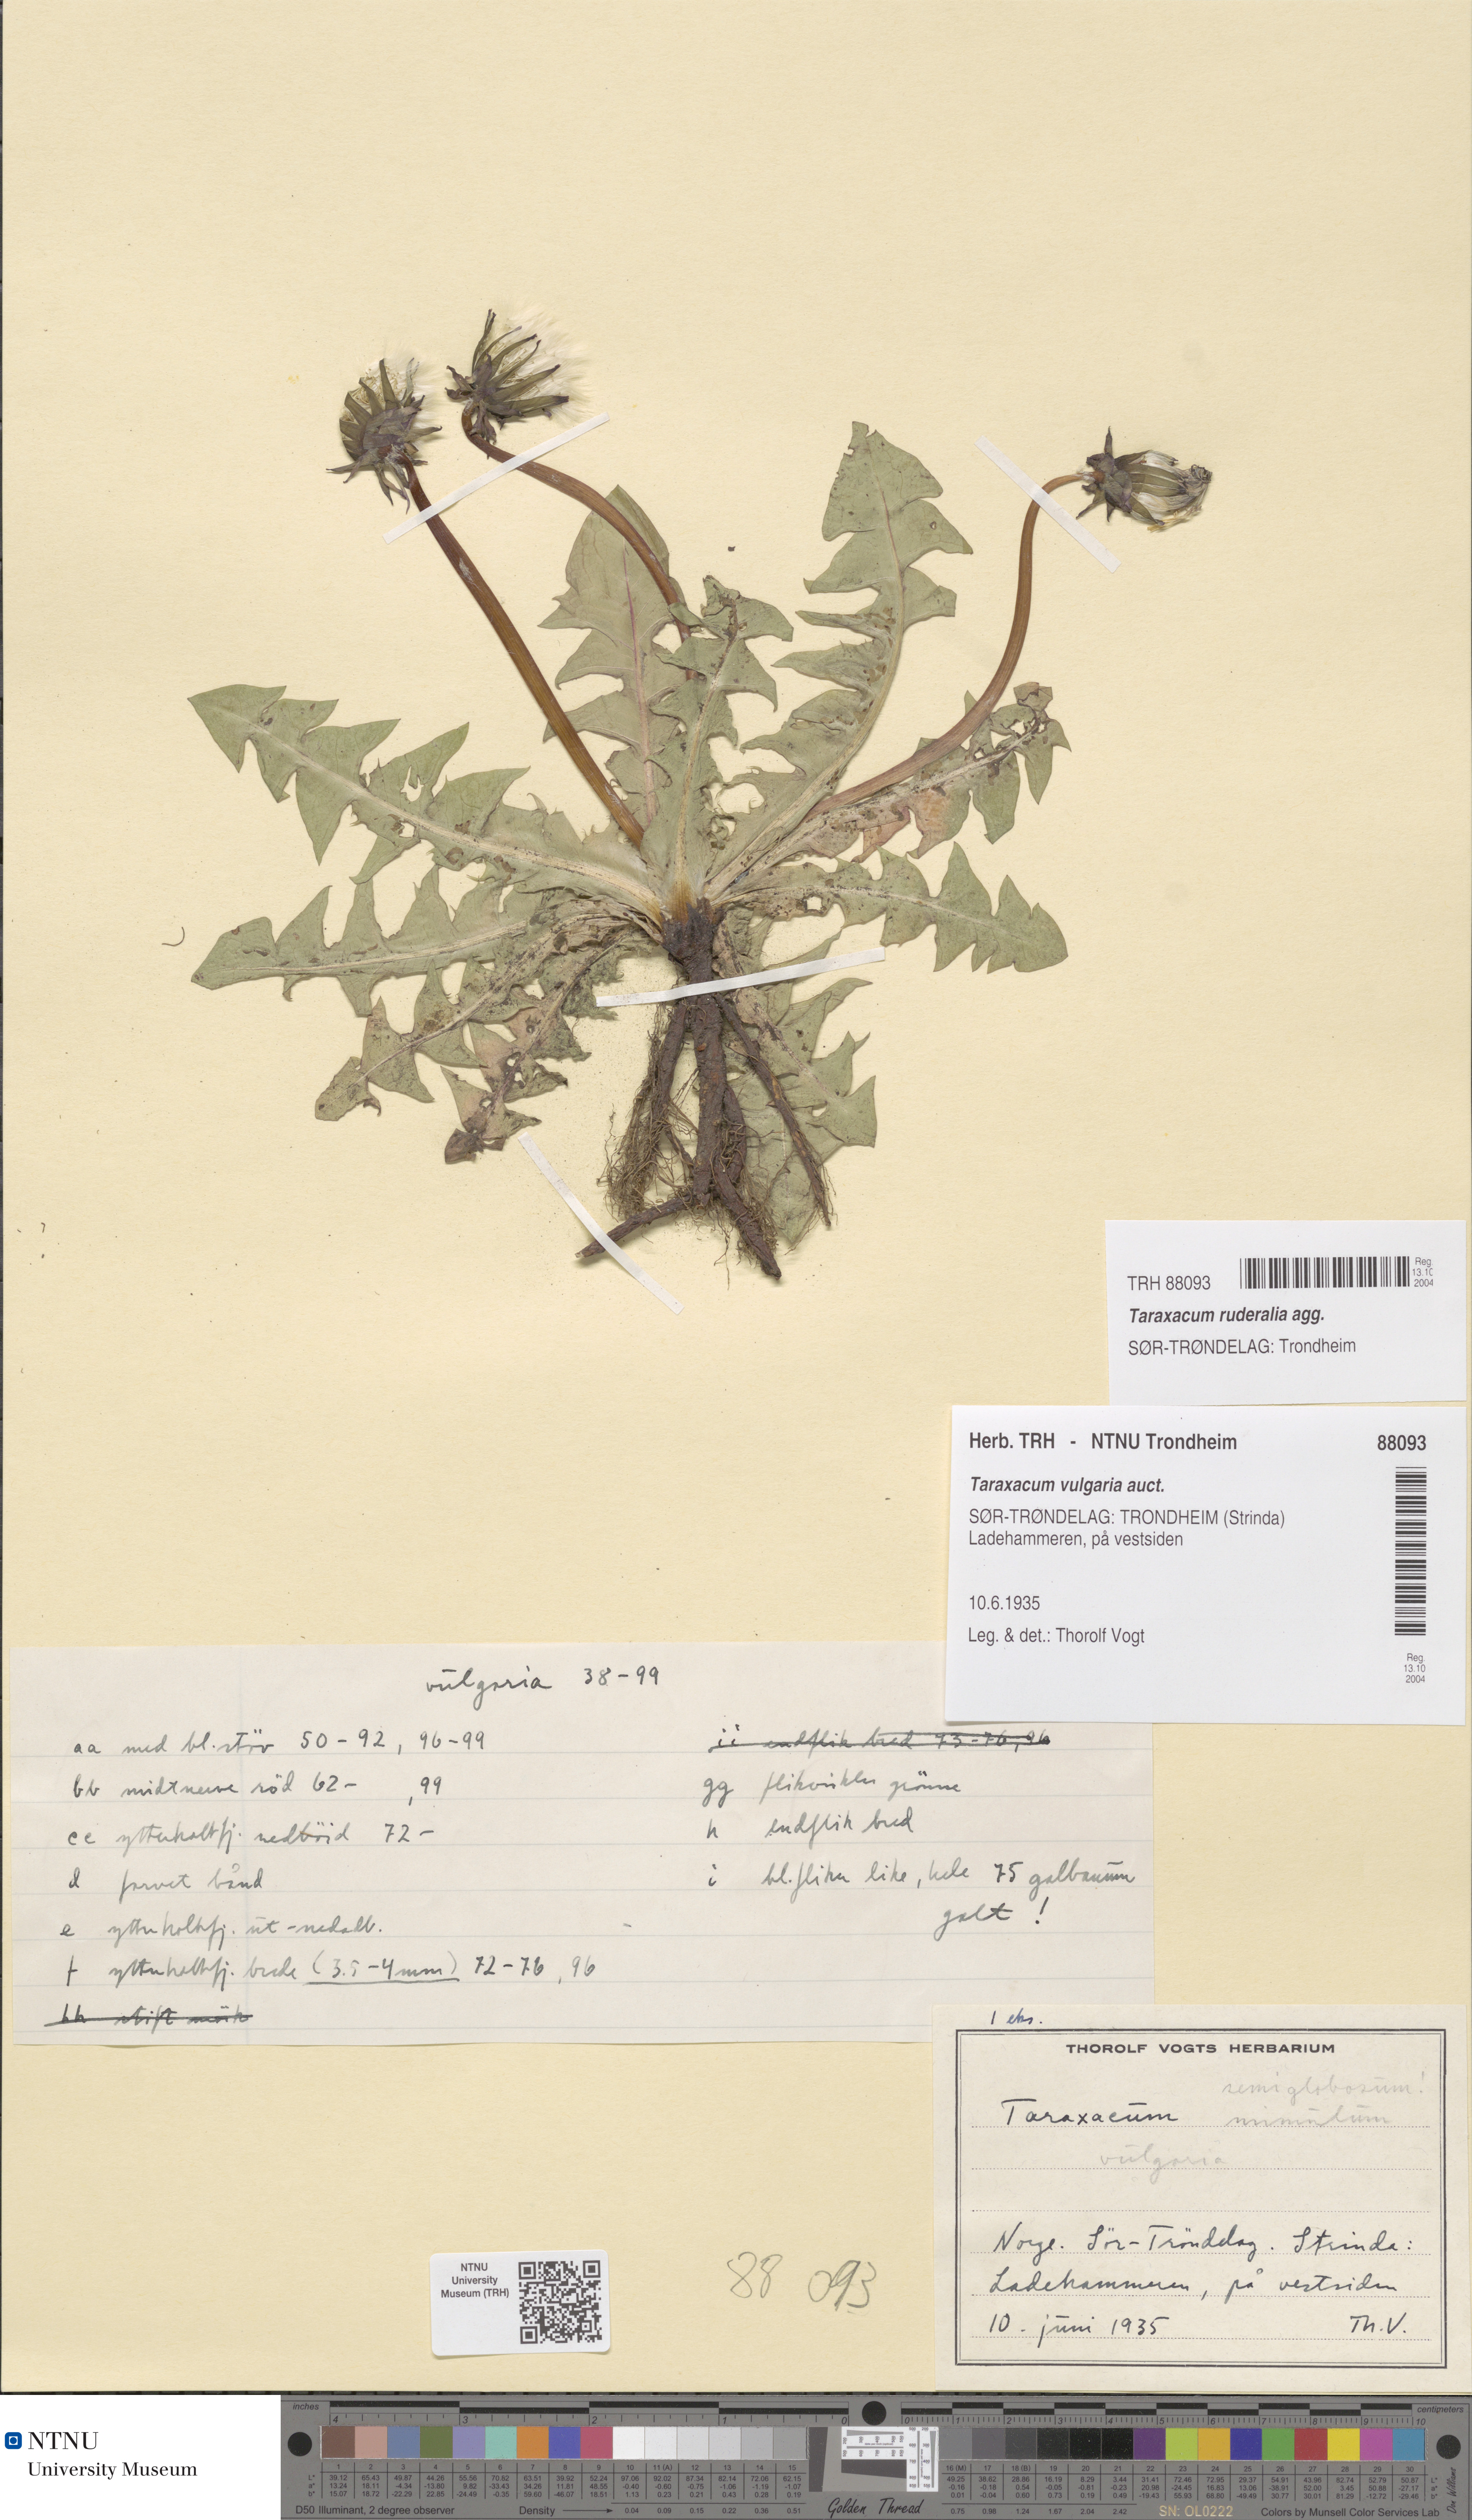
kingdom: Plantae
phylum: Tracheophyta
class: Magnoliopsida
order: Asterales
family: Asteraceae
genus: Taraxacum
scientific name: Taraxacum
